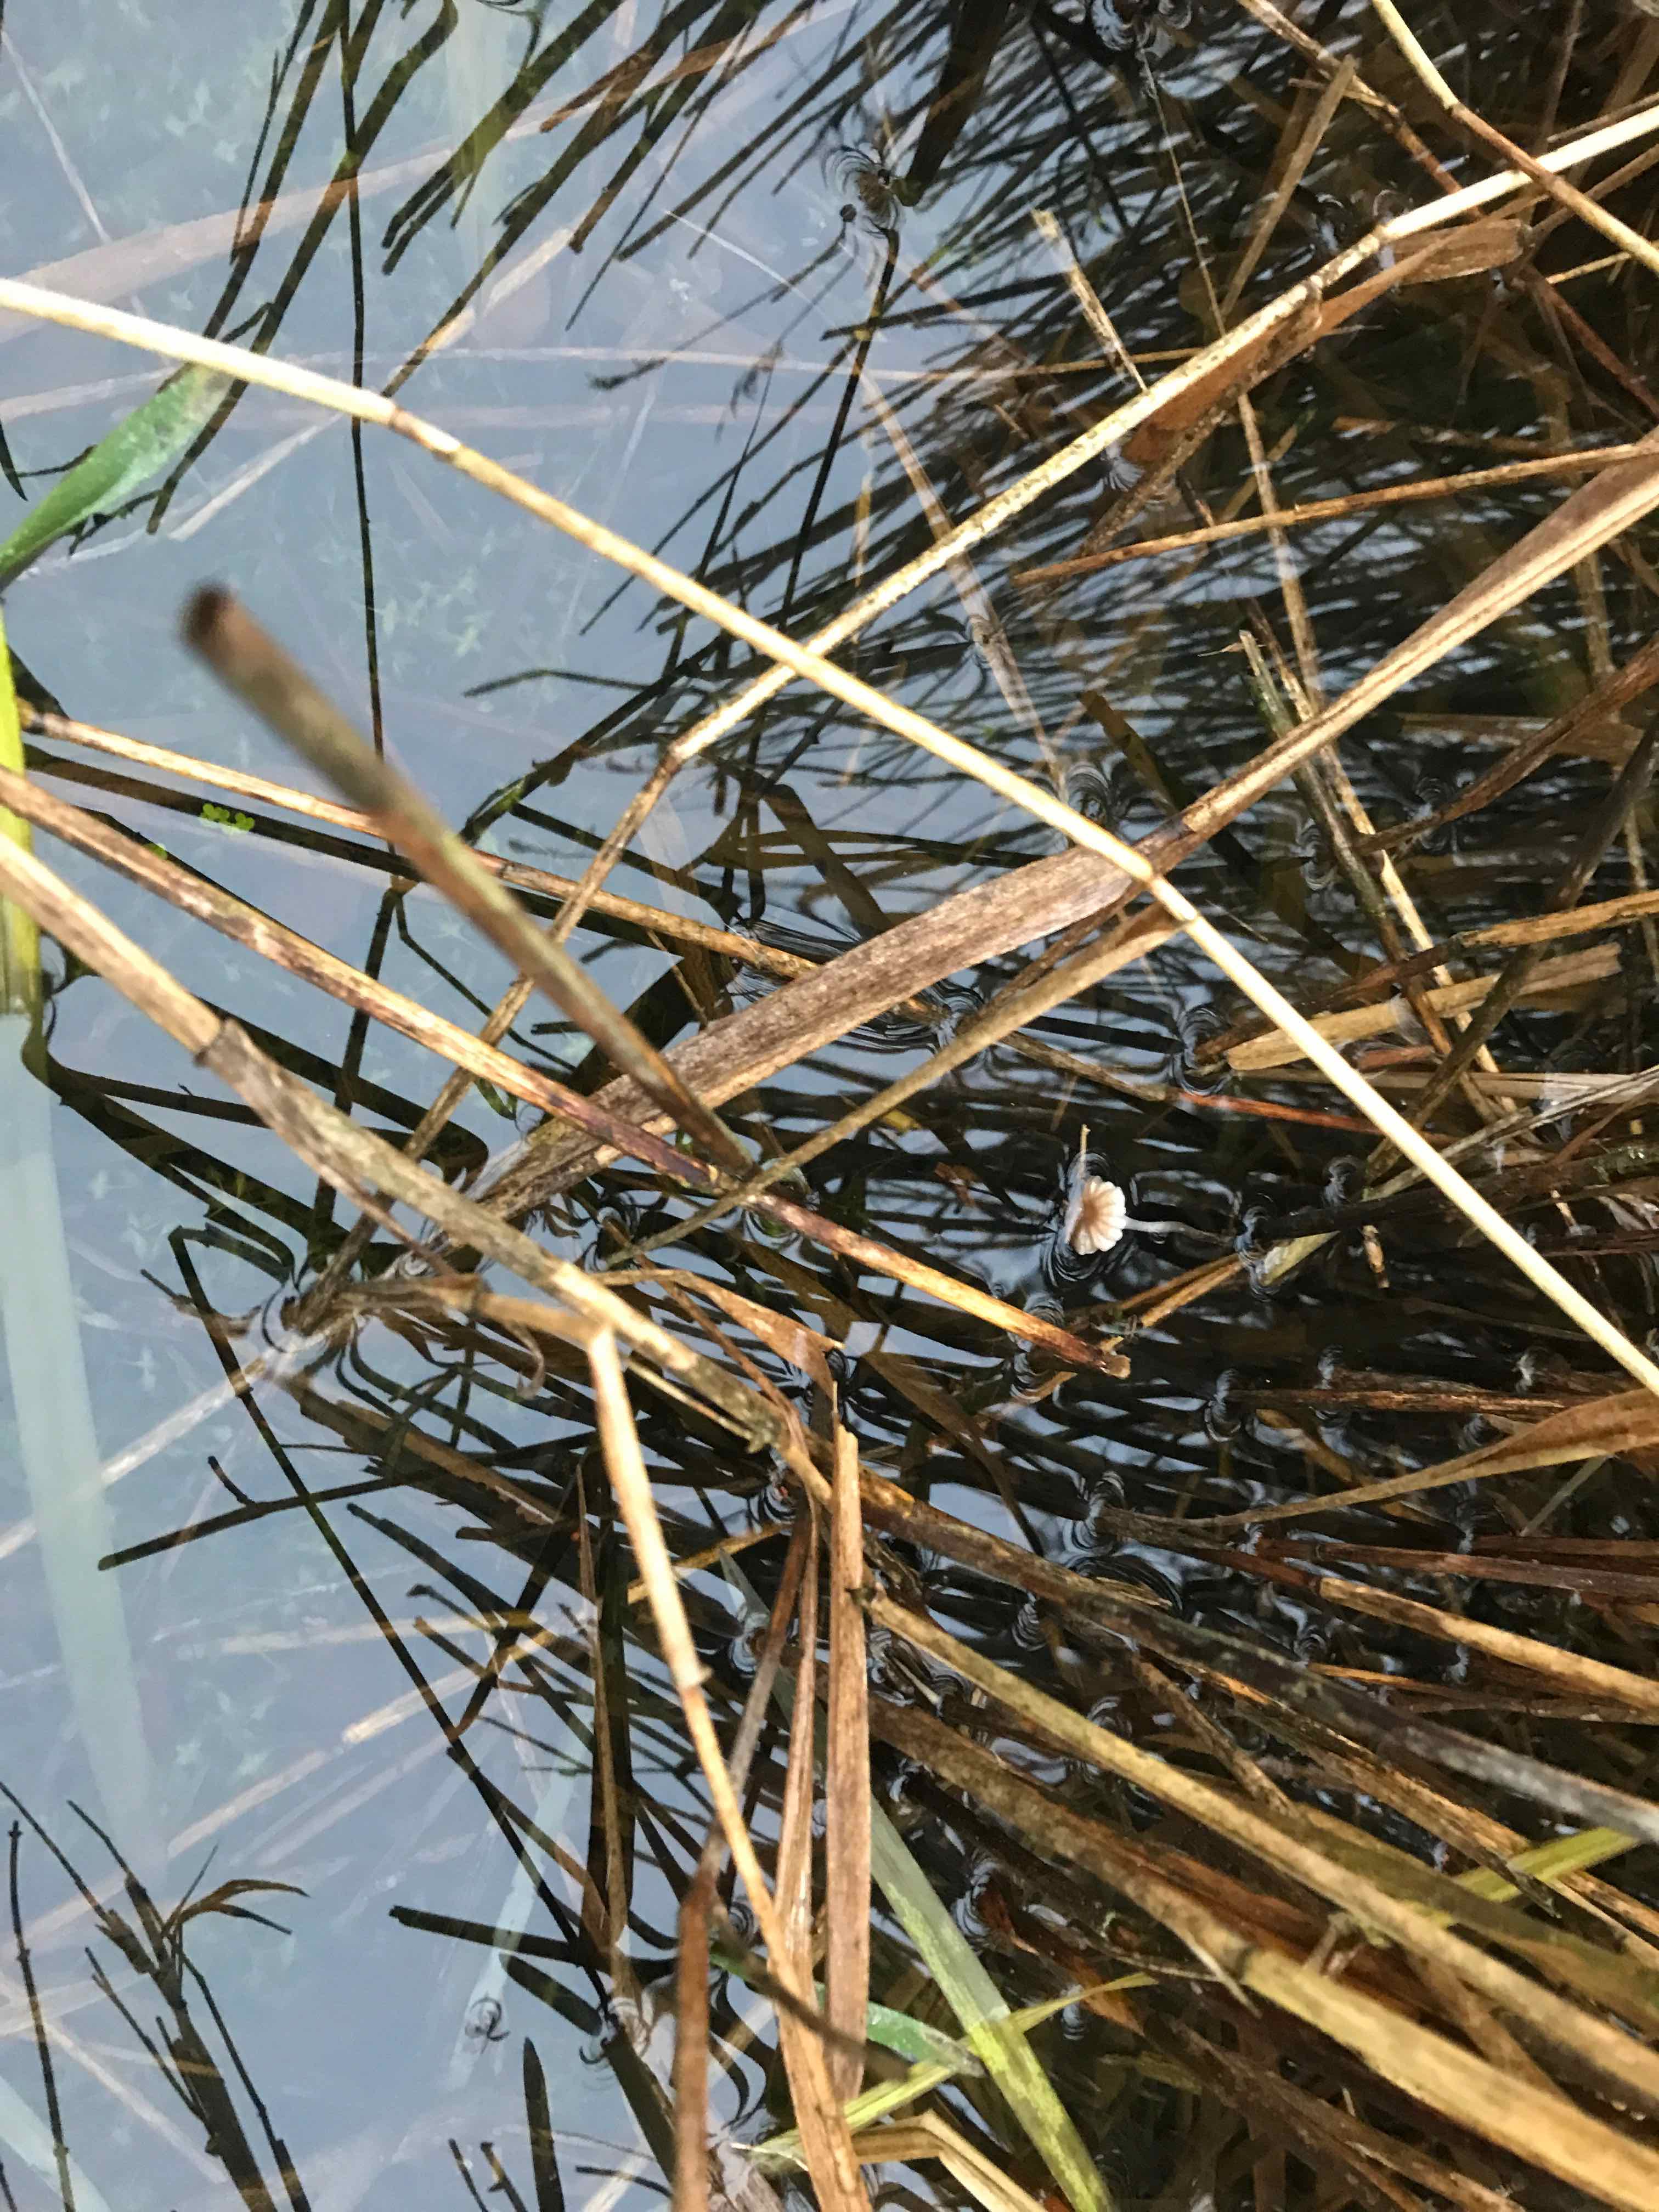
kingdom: Fungi
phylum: Basidiomycota
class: Agaricomycetes
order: Agaricales
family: Mycenaceae
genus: Mycena
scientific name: Mycena belliae
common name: tagrørs-huesvamp
